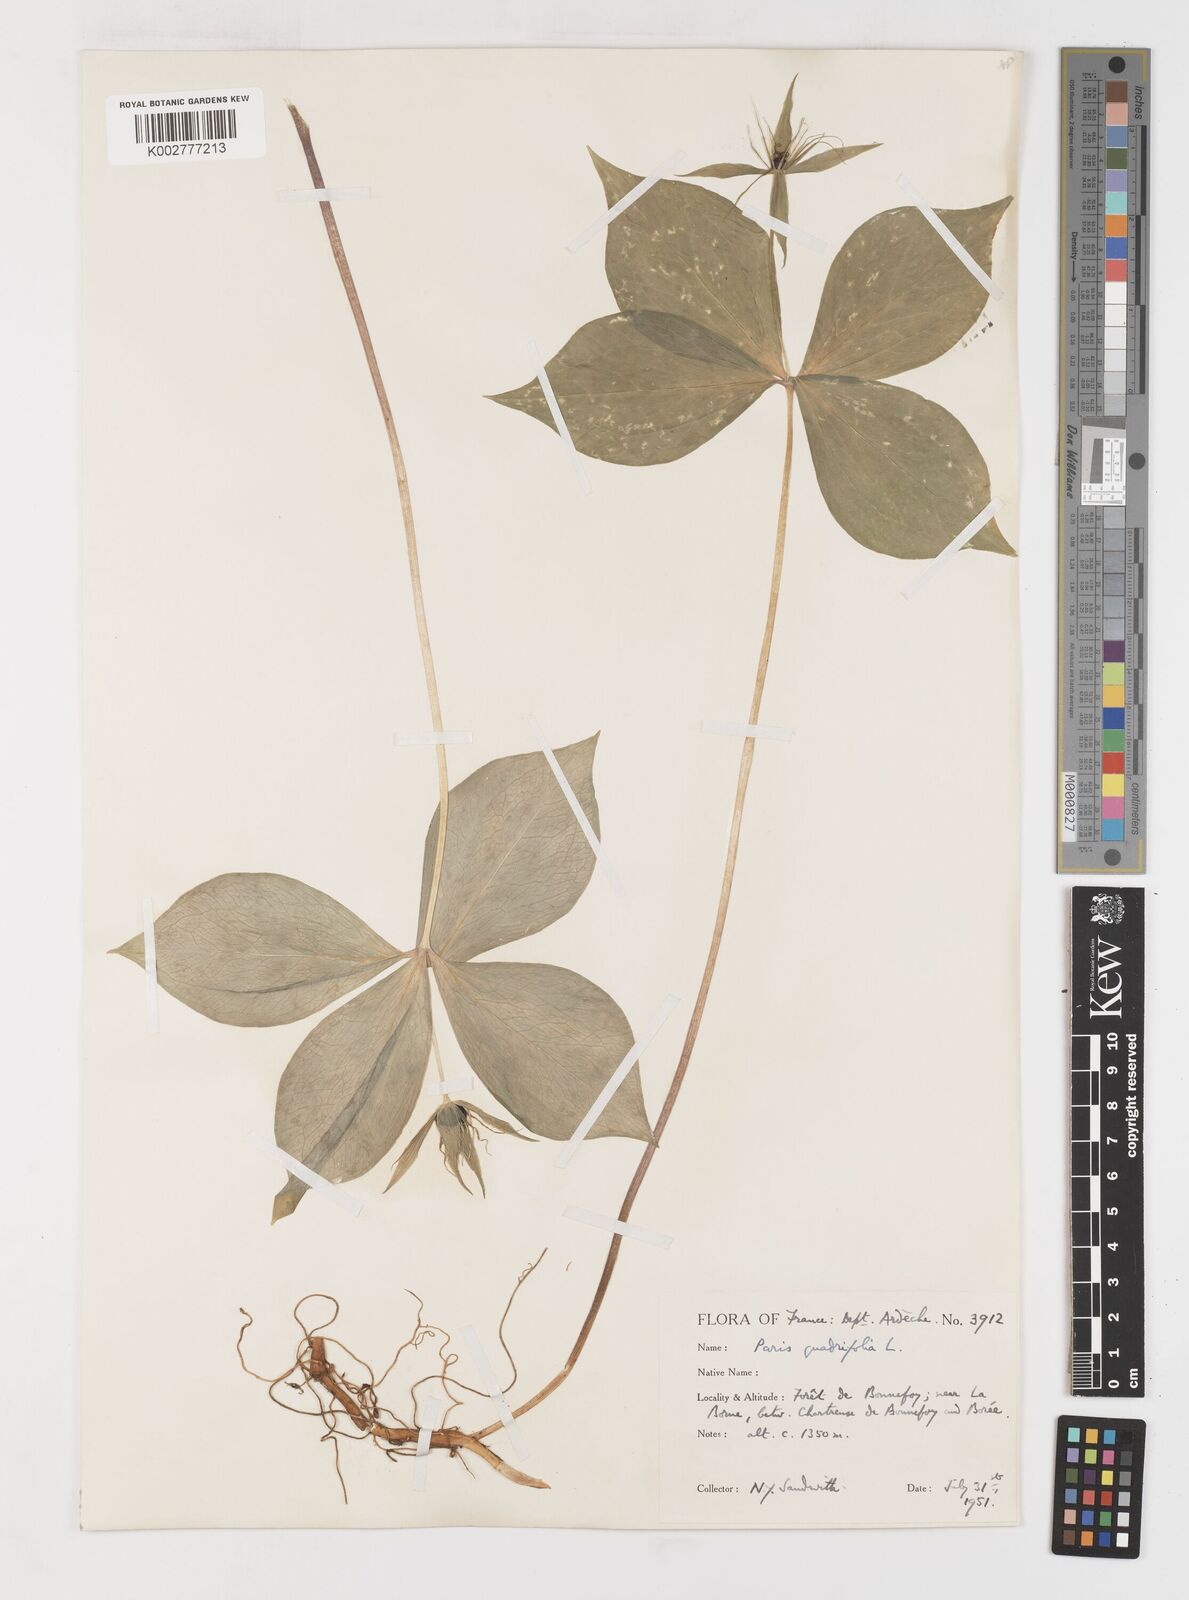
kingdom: Plantae
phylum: Tracheophyta
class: Liliopsida
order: Liliales
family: Melanthiaceae
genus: Paris
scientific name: Paris quadrifolia
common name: Herb-paris
